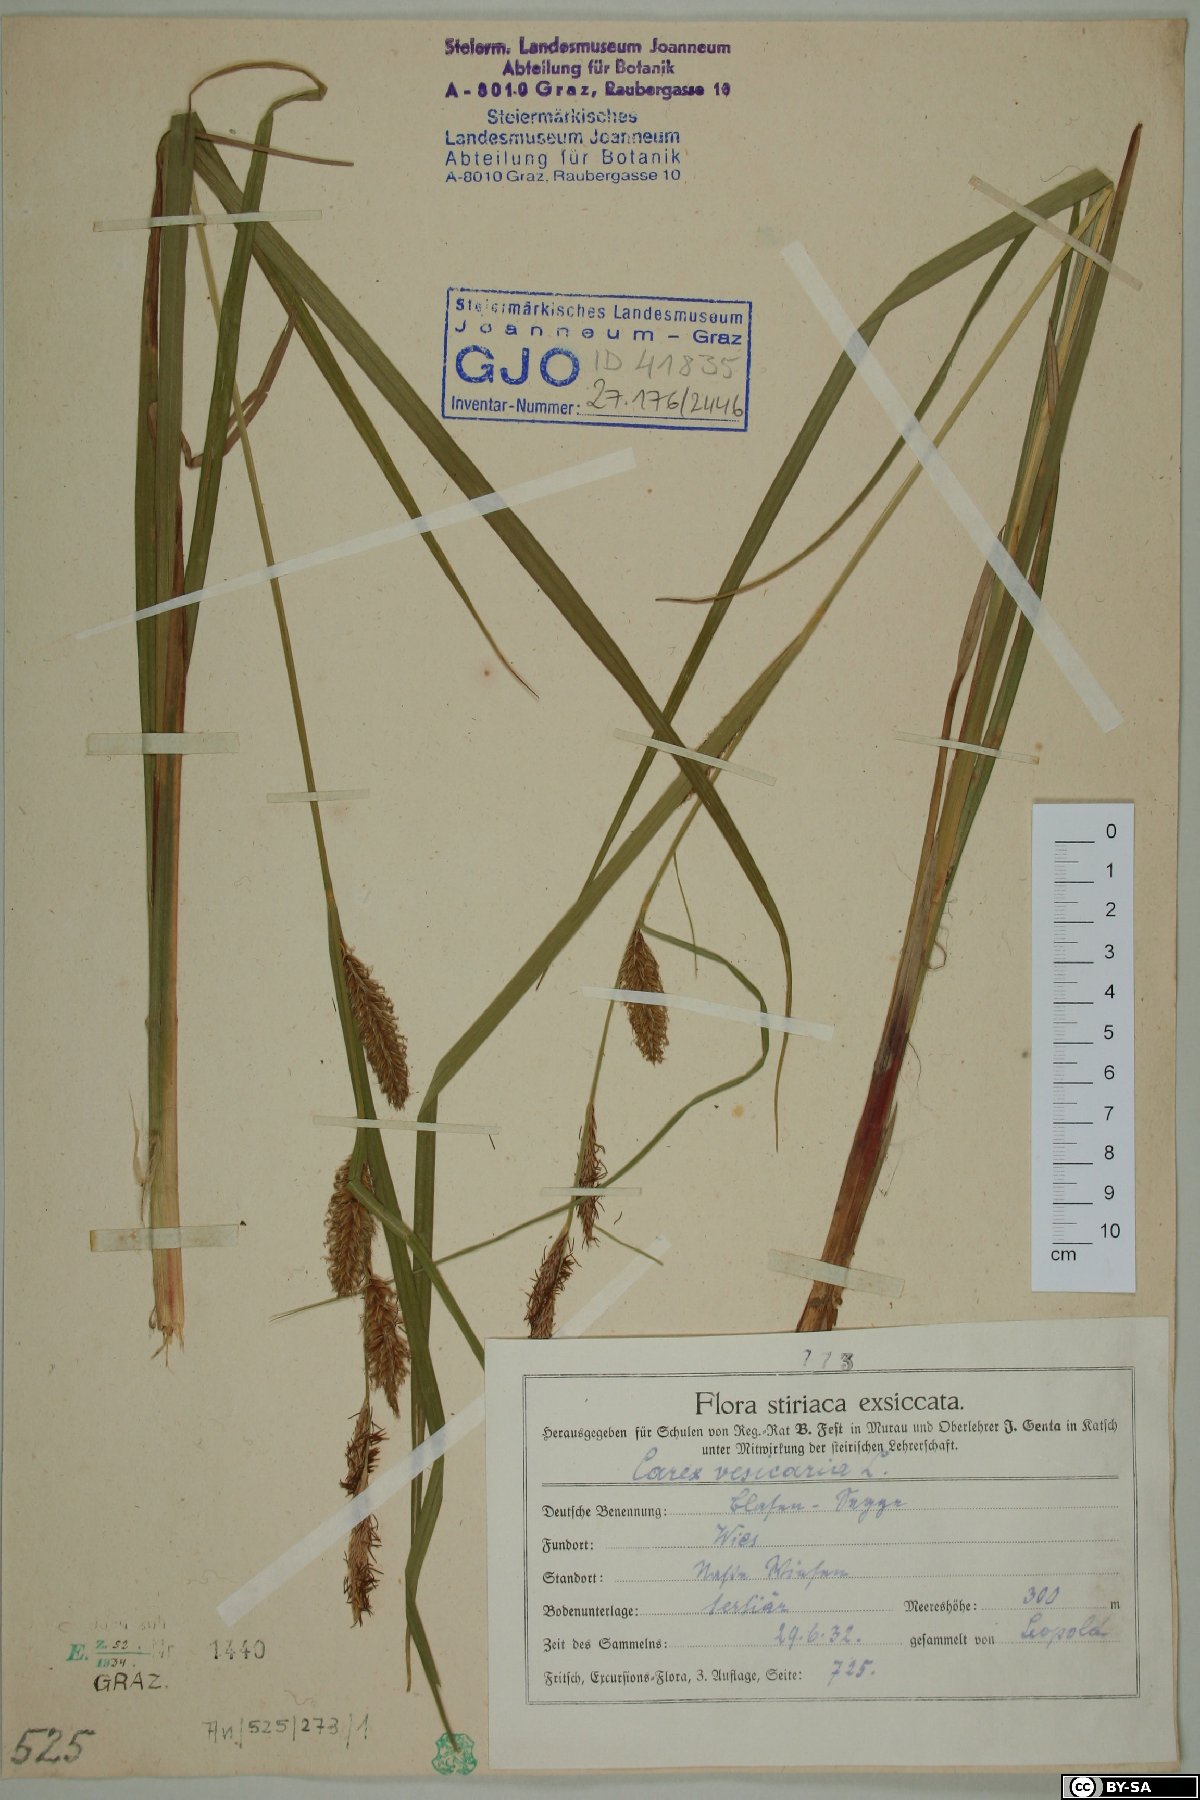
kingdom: Plantae
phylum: Tracheophyta
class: Liliopsida
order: Poales
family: Cyperaceae
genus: Carex
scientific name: Carex vesicaria
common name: Bladder-sedge
